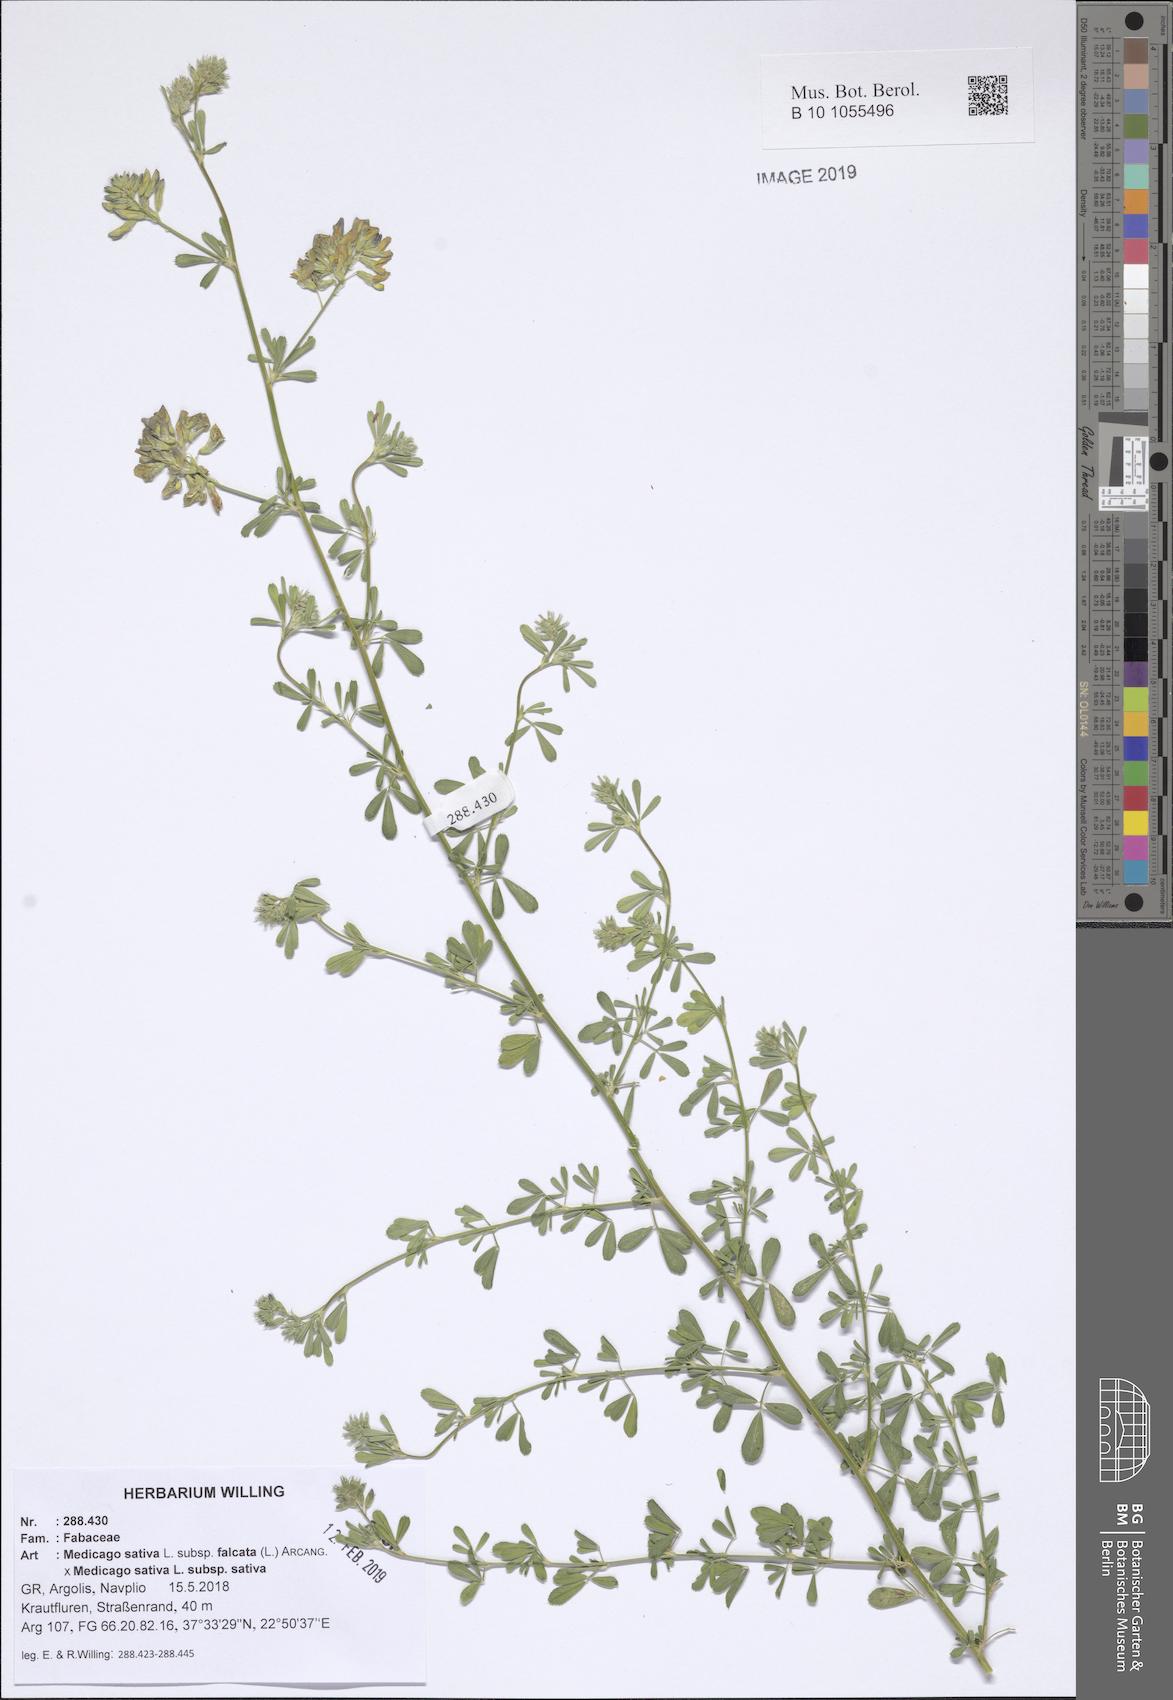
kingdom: Plantae
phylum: Tracheophyta
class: Magnoliopsida
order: Fabales
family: Fabaceae
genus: Medicago
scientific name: Medicago varia
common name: Sand lucerne
